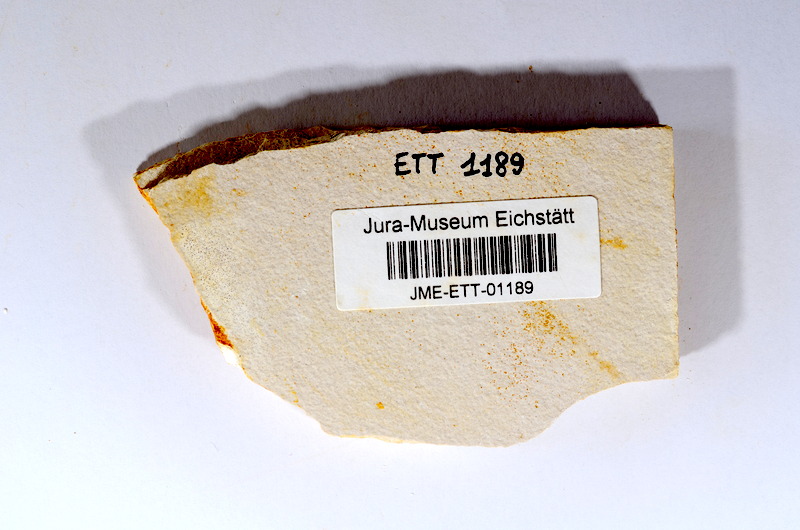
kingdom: Animalia
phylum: Chordata
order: Salmoniformes
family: Orthogonikleithridae
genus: Orthogonikleithrus
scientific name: Orthogonikleithrus hoelli
